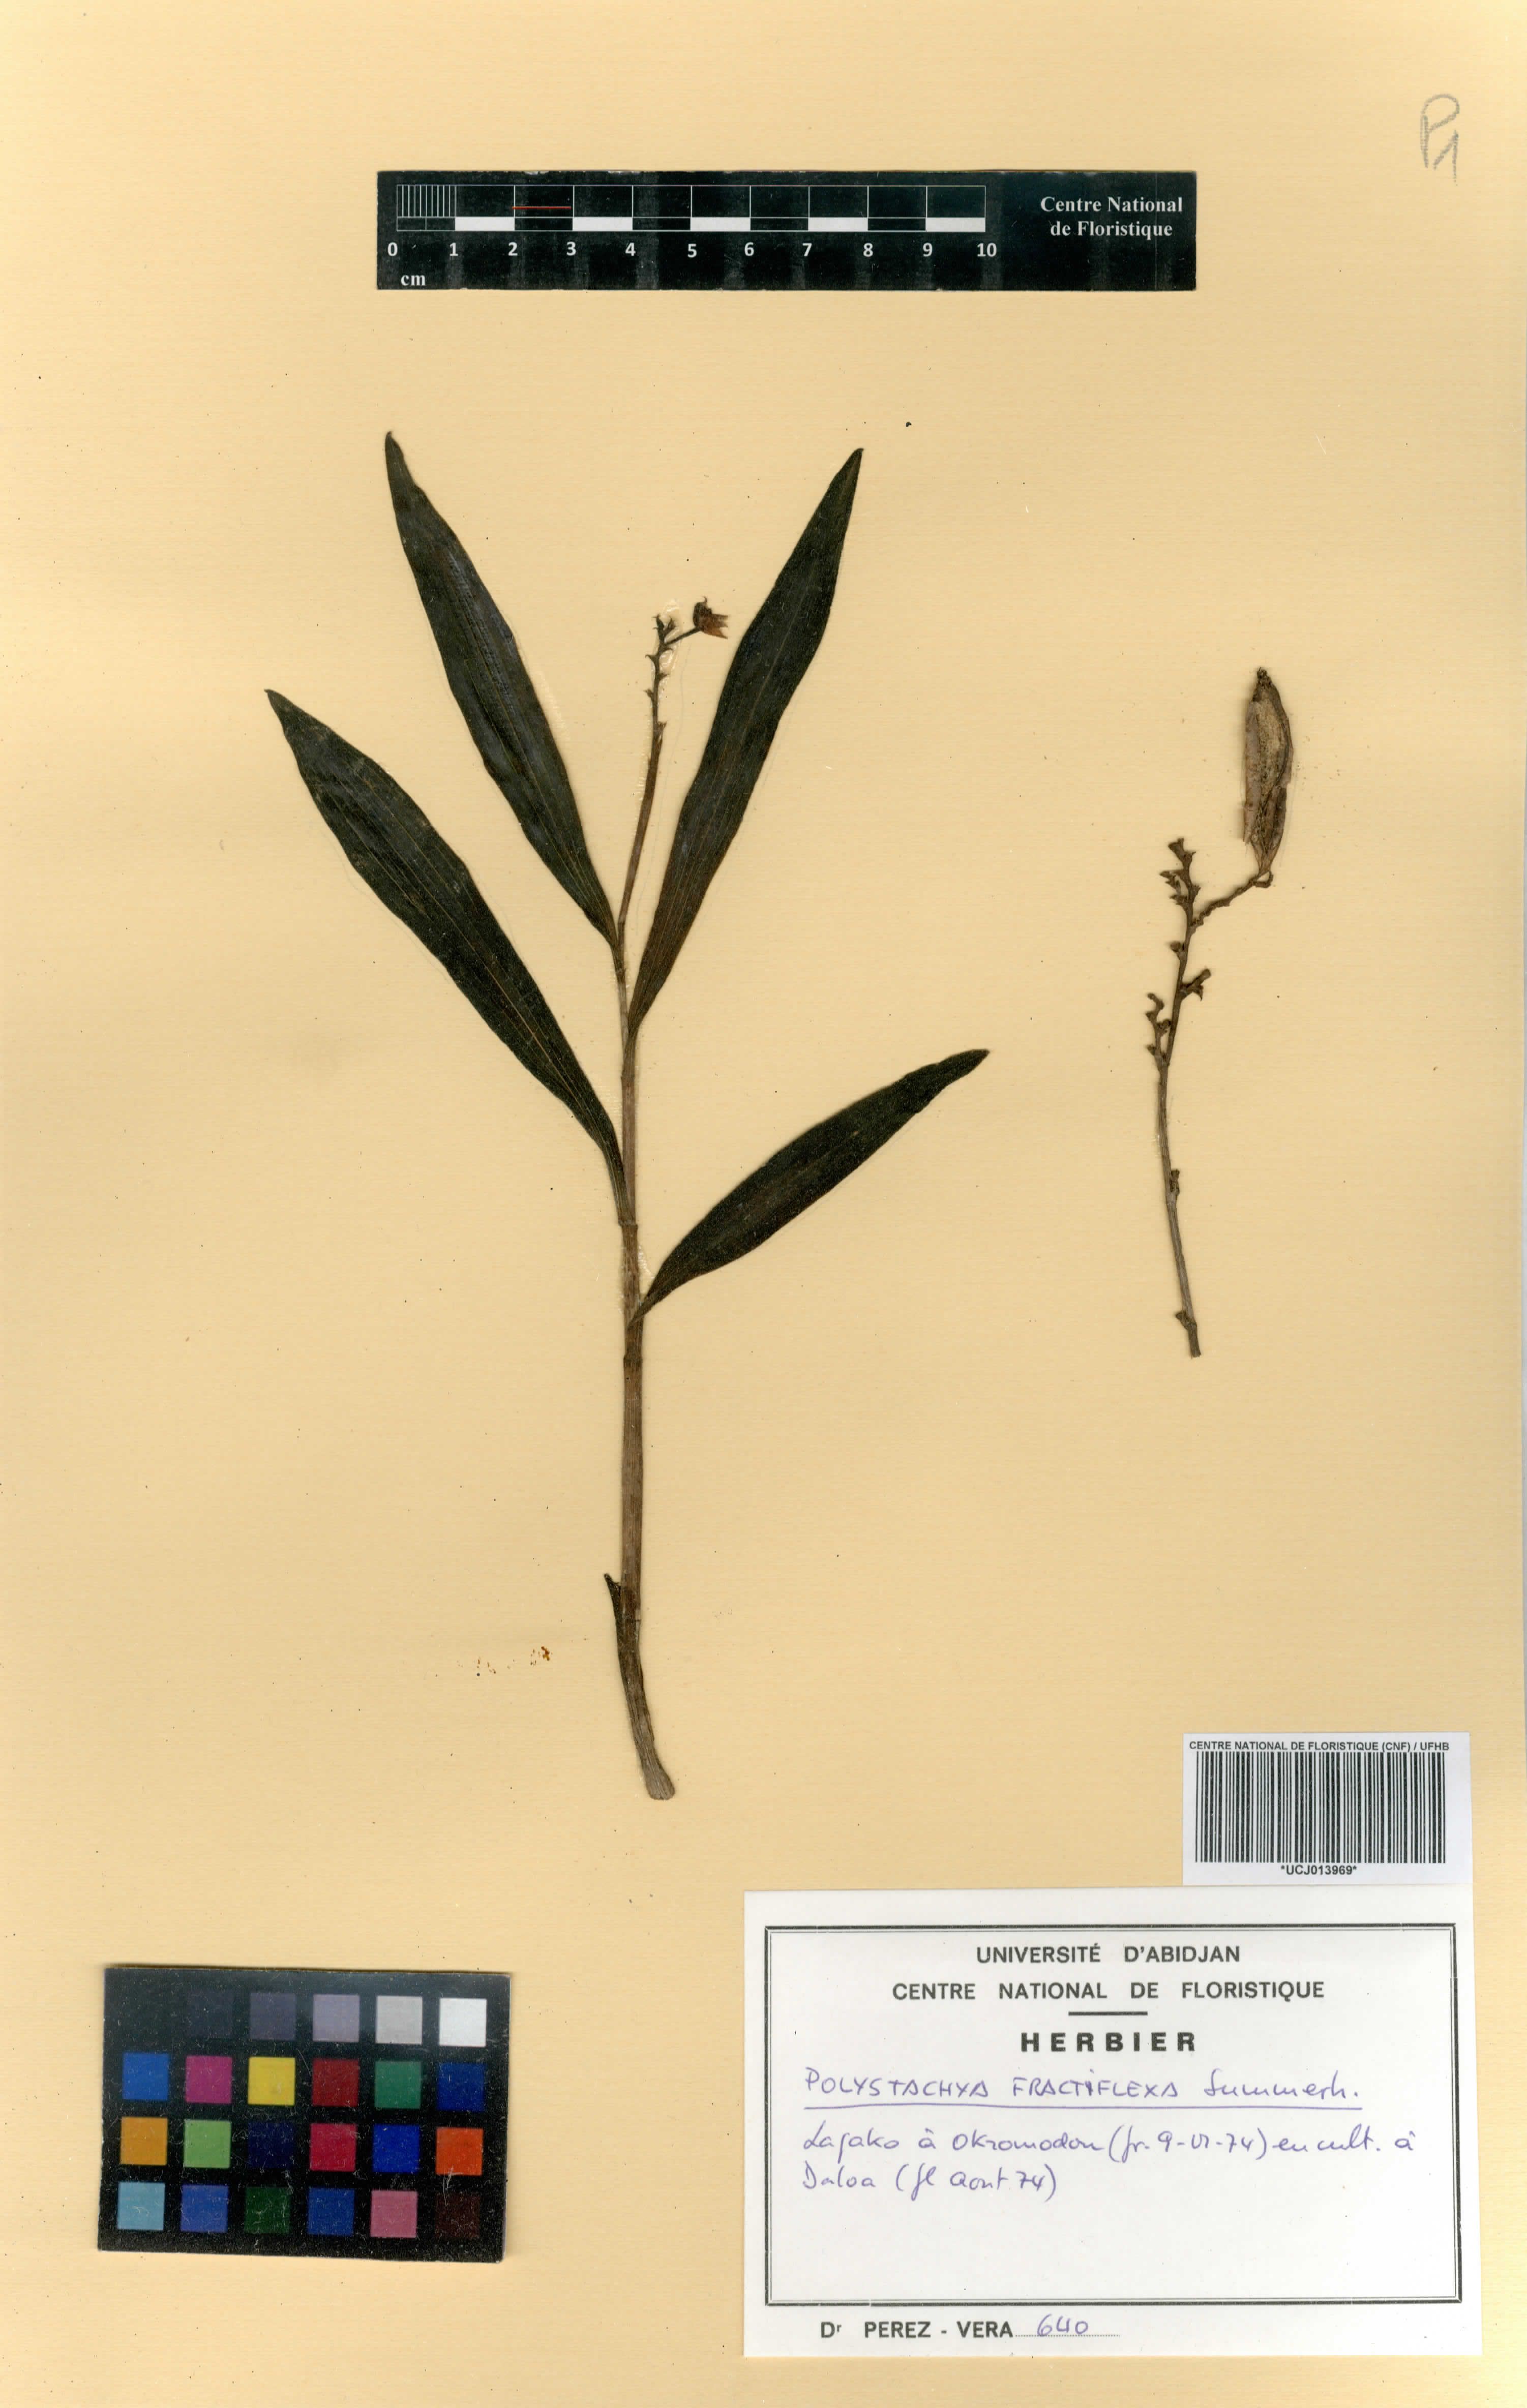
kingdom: Plantae
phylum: Tracheophyta
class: Liliopsida
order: Asparagales
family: Orchidaceae
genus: Polystachya
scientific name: Polystachya fractiflexa
